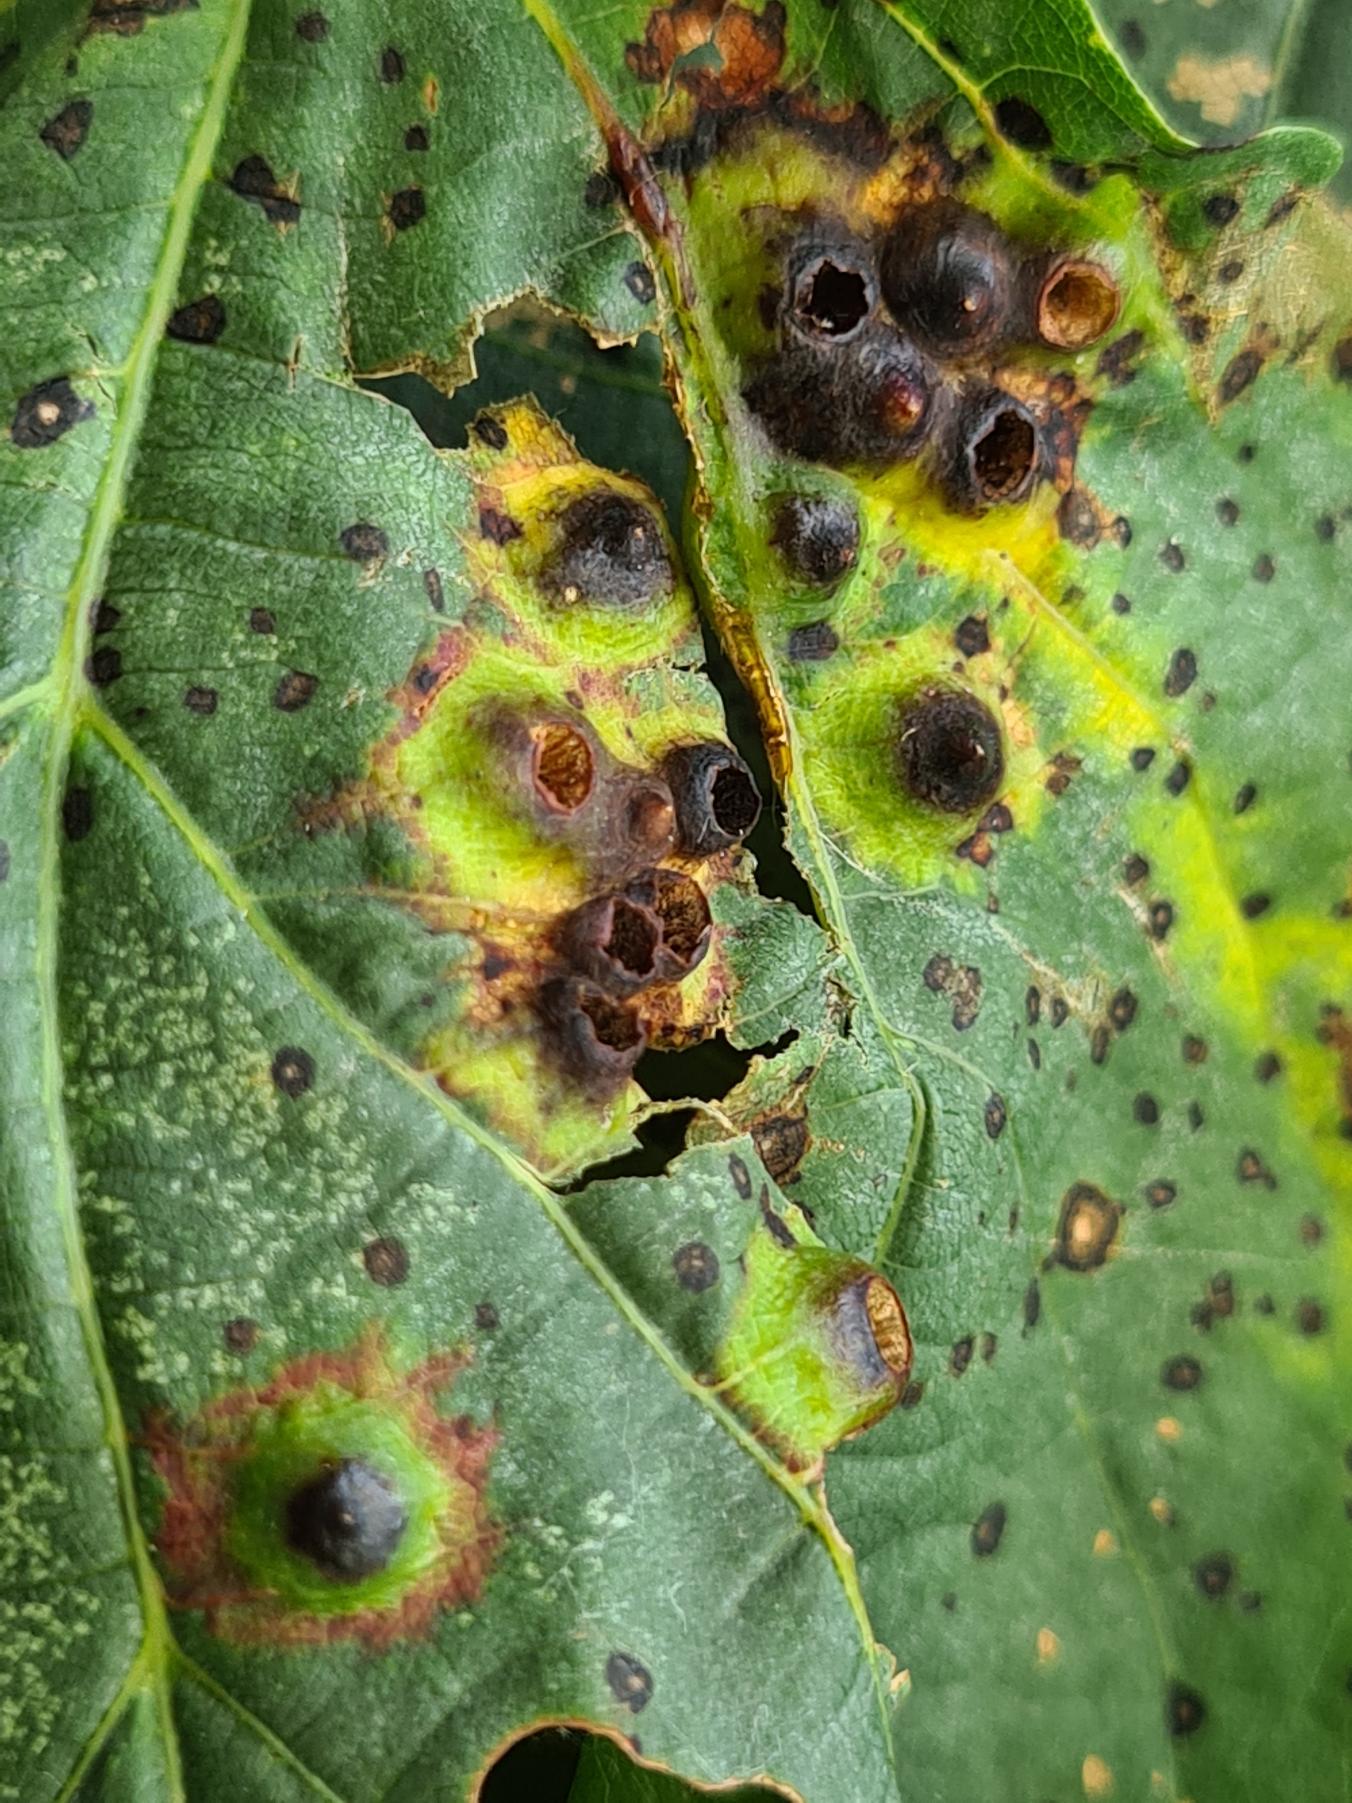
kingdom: Animalia
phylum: Arthropoda
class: Insecta
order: Diptera
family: Cecidomyiidae
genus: Didymomyia
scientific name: Didymomyia tiliacea
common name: Babusjkagalmyg
